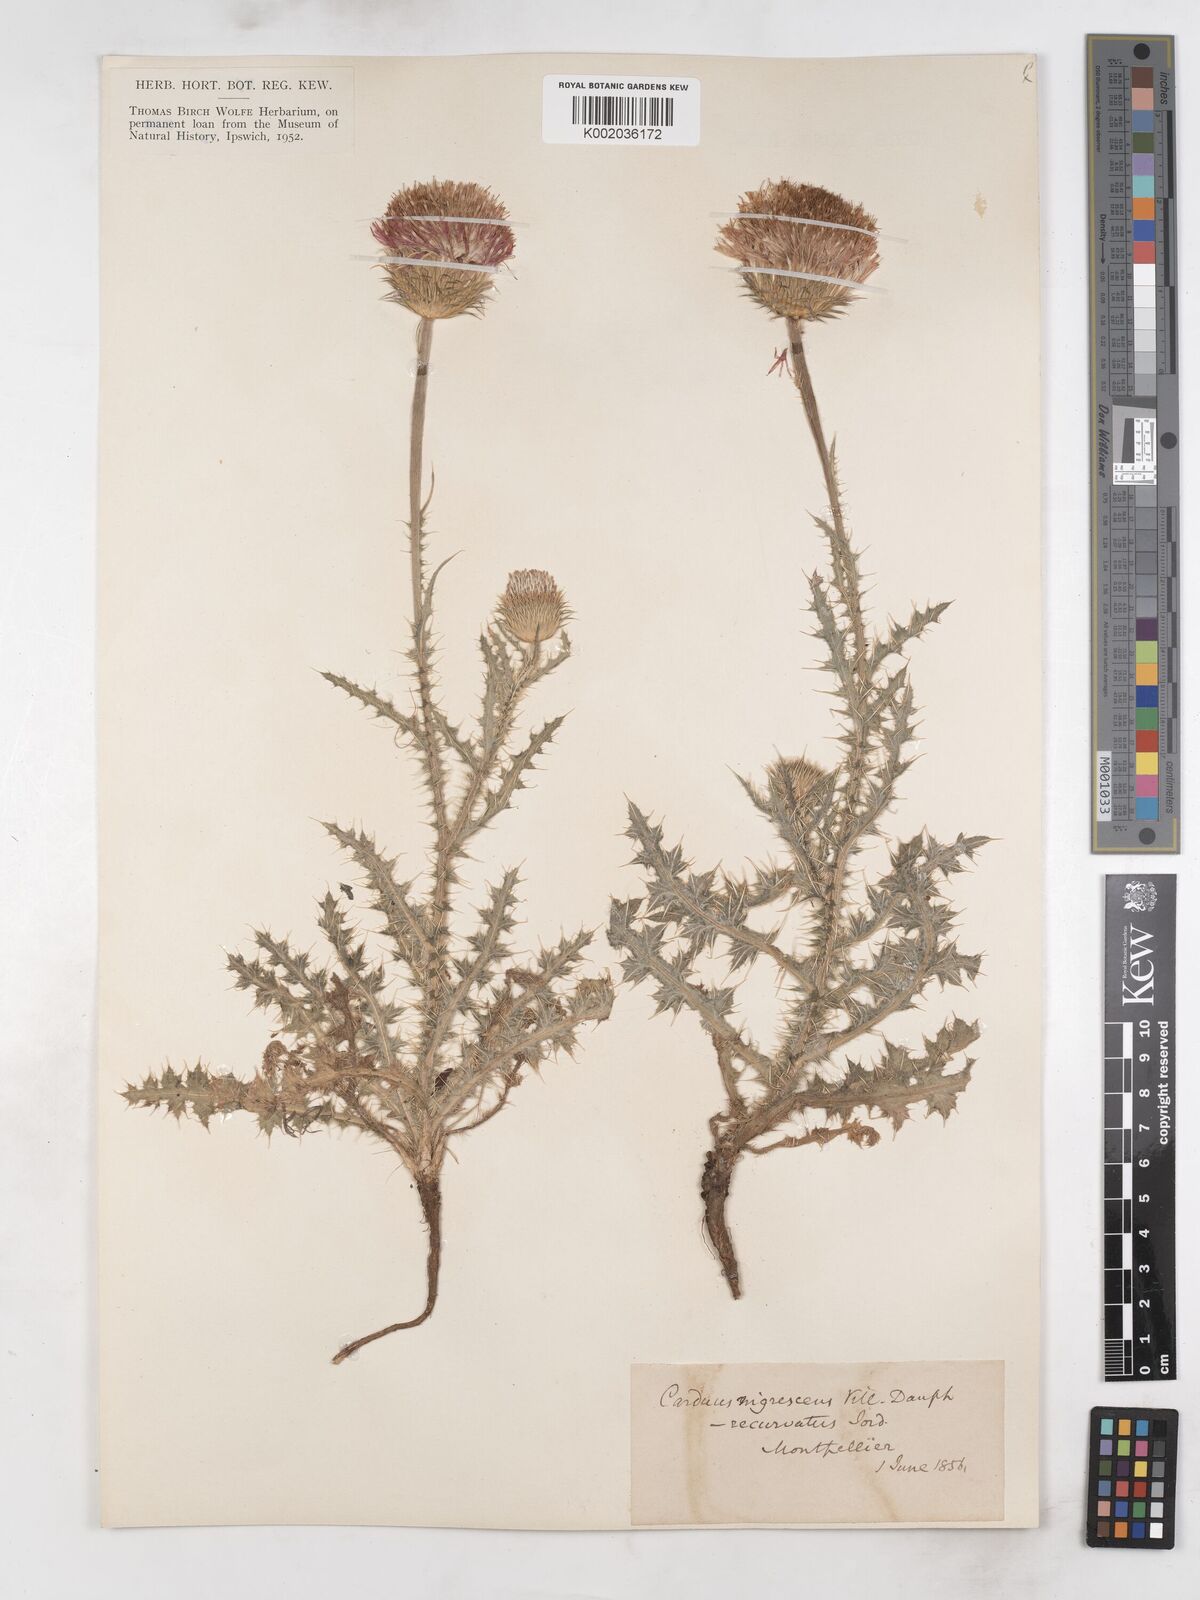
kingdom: Plantae
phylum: Tracheophyta
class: Magnoliopsida
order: Asterales
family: Asteraceae
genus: Carduus
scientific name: Carduus nigrescens
